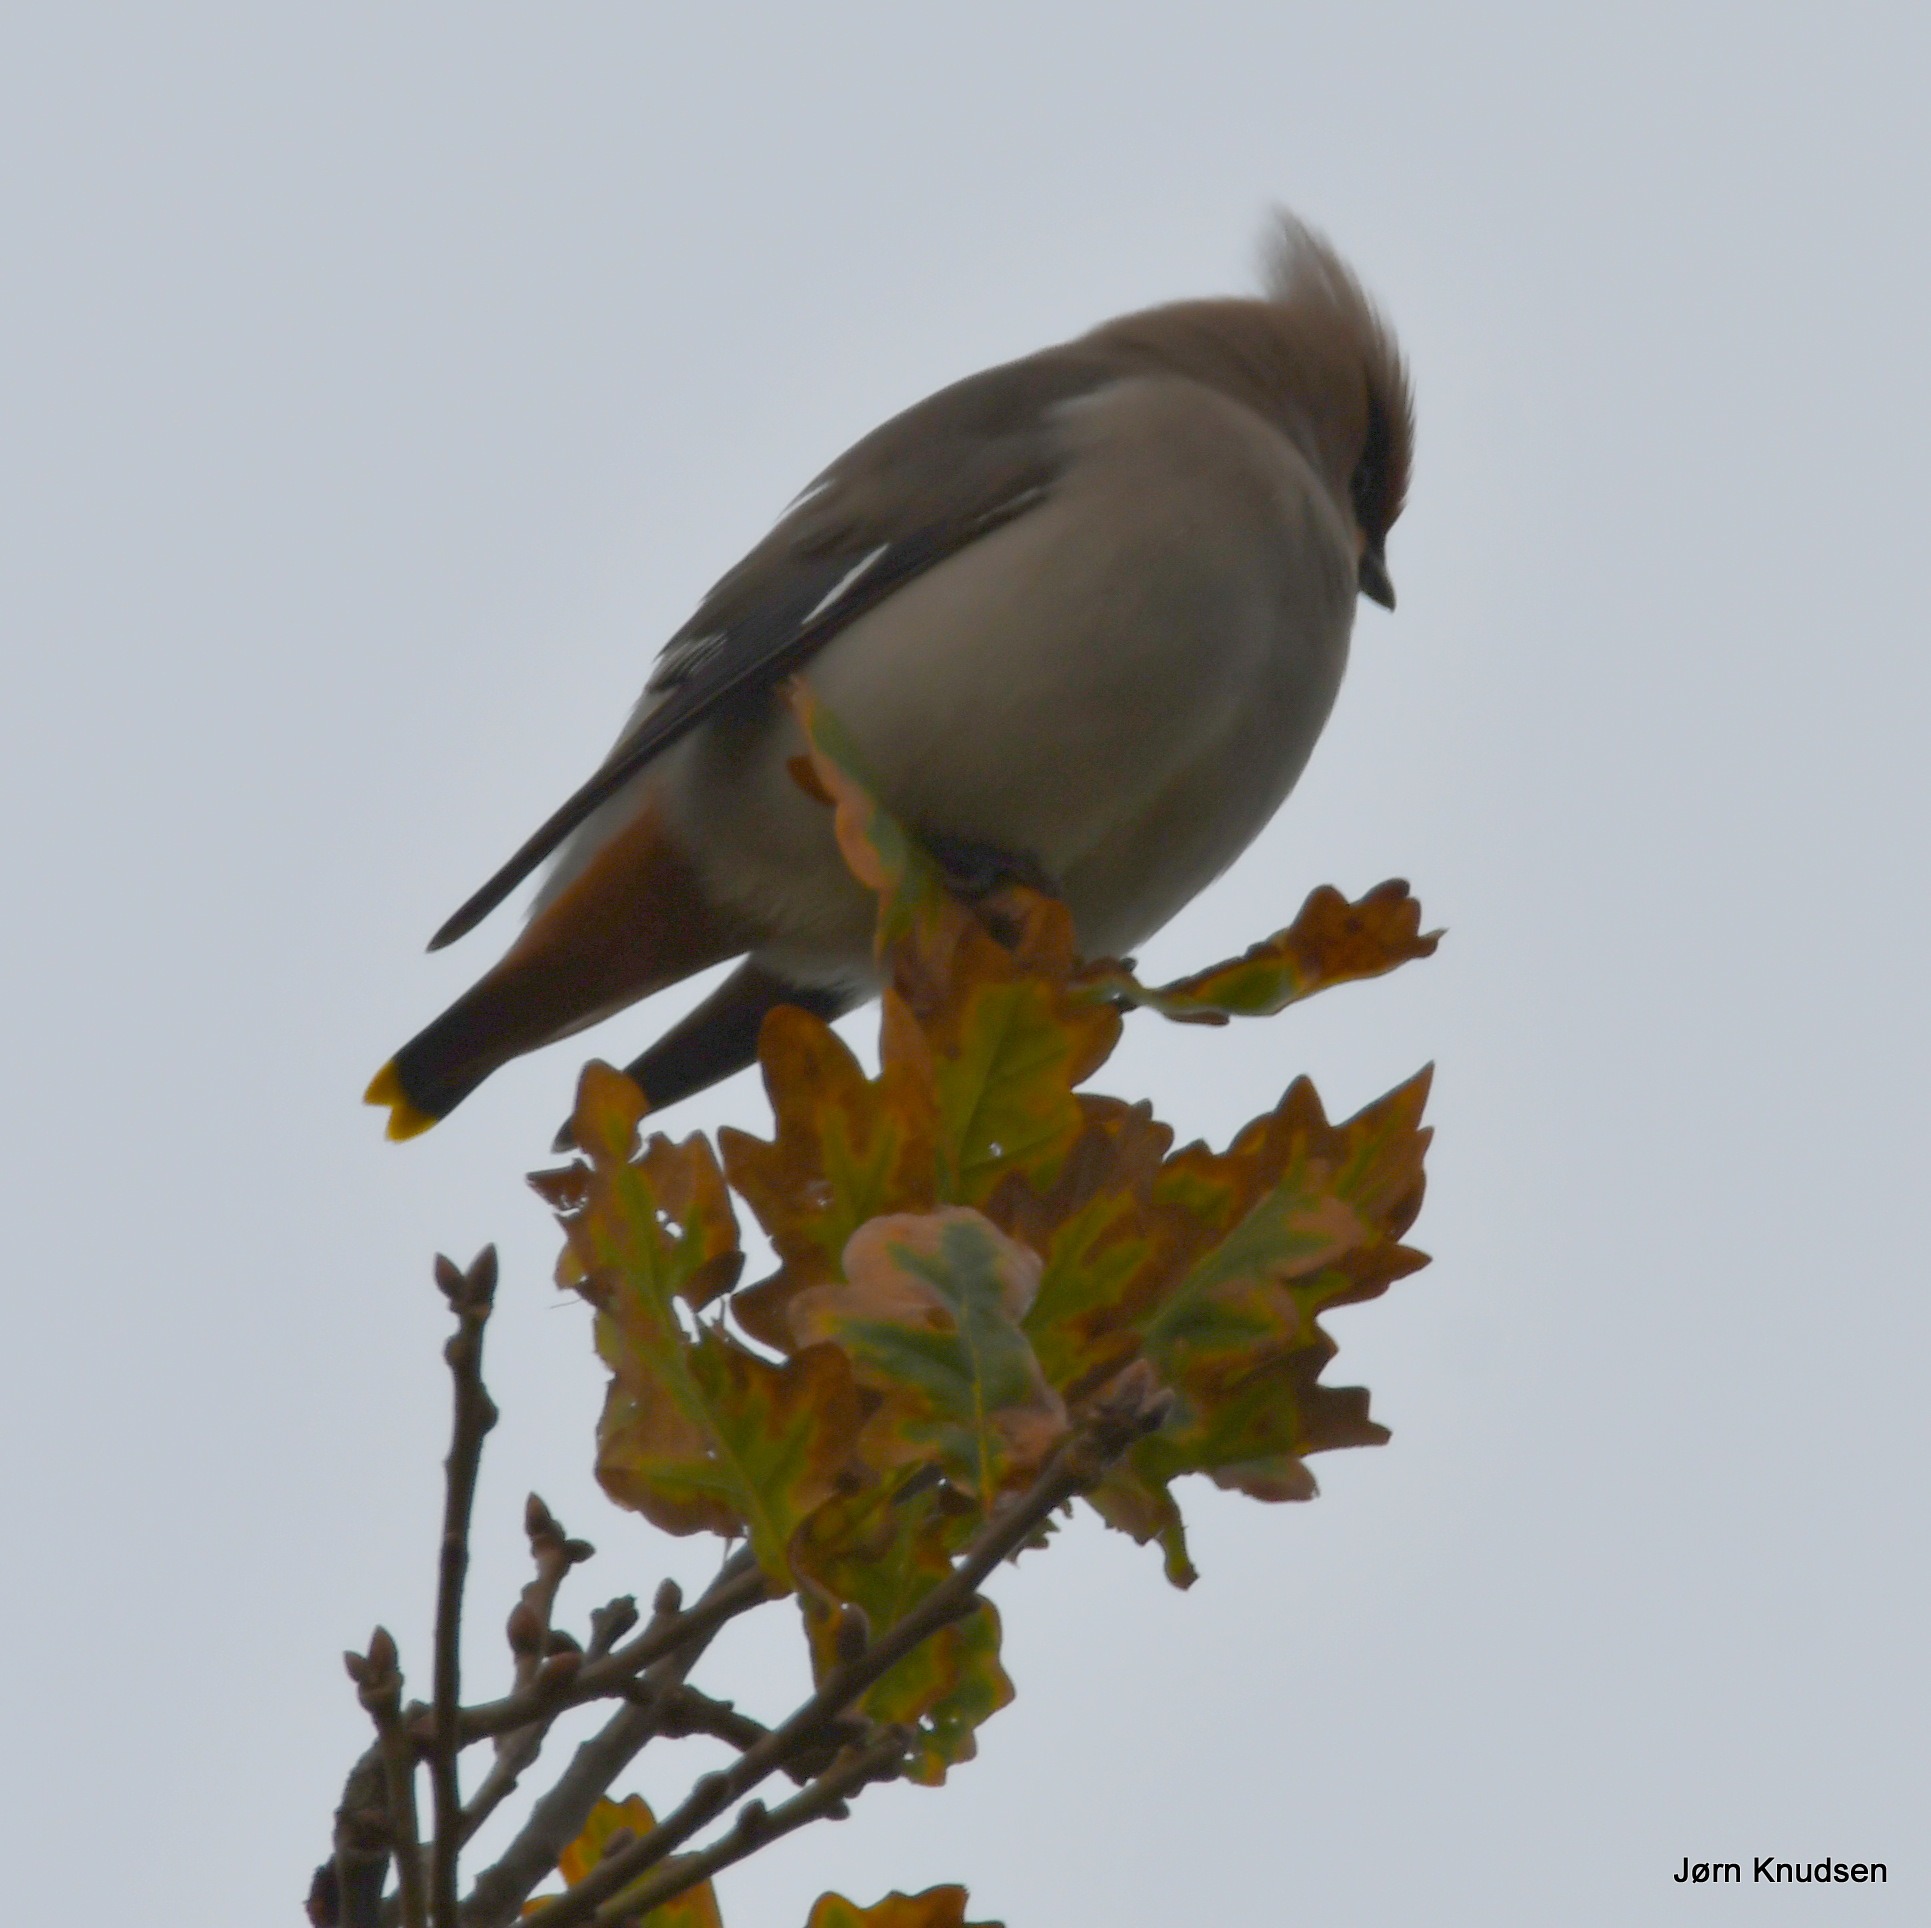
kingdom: Animalia
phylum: Chordata
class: Aves
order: Passeriformes
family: Bombycillidae
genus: Bombycilla
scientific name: Bombycilla garrulus
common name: Silkehale
